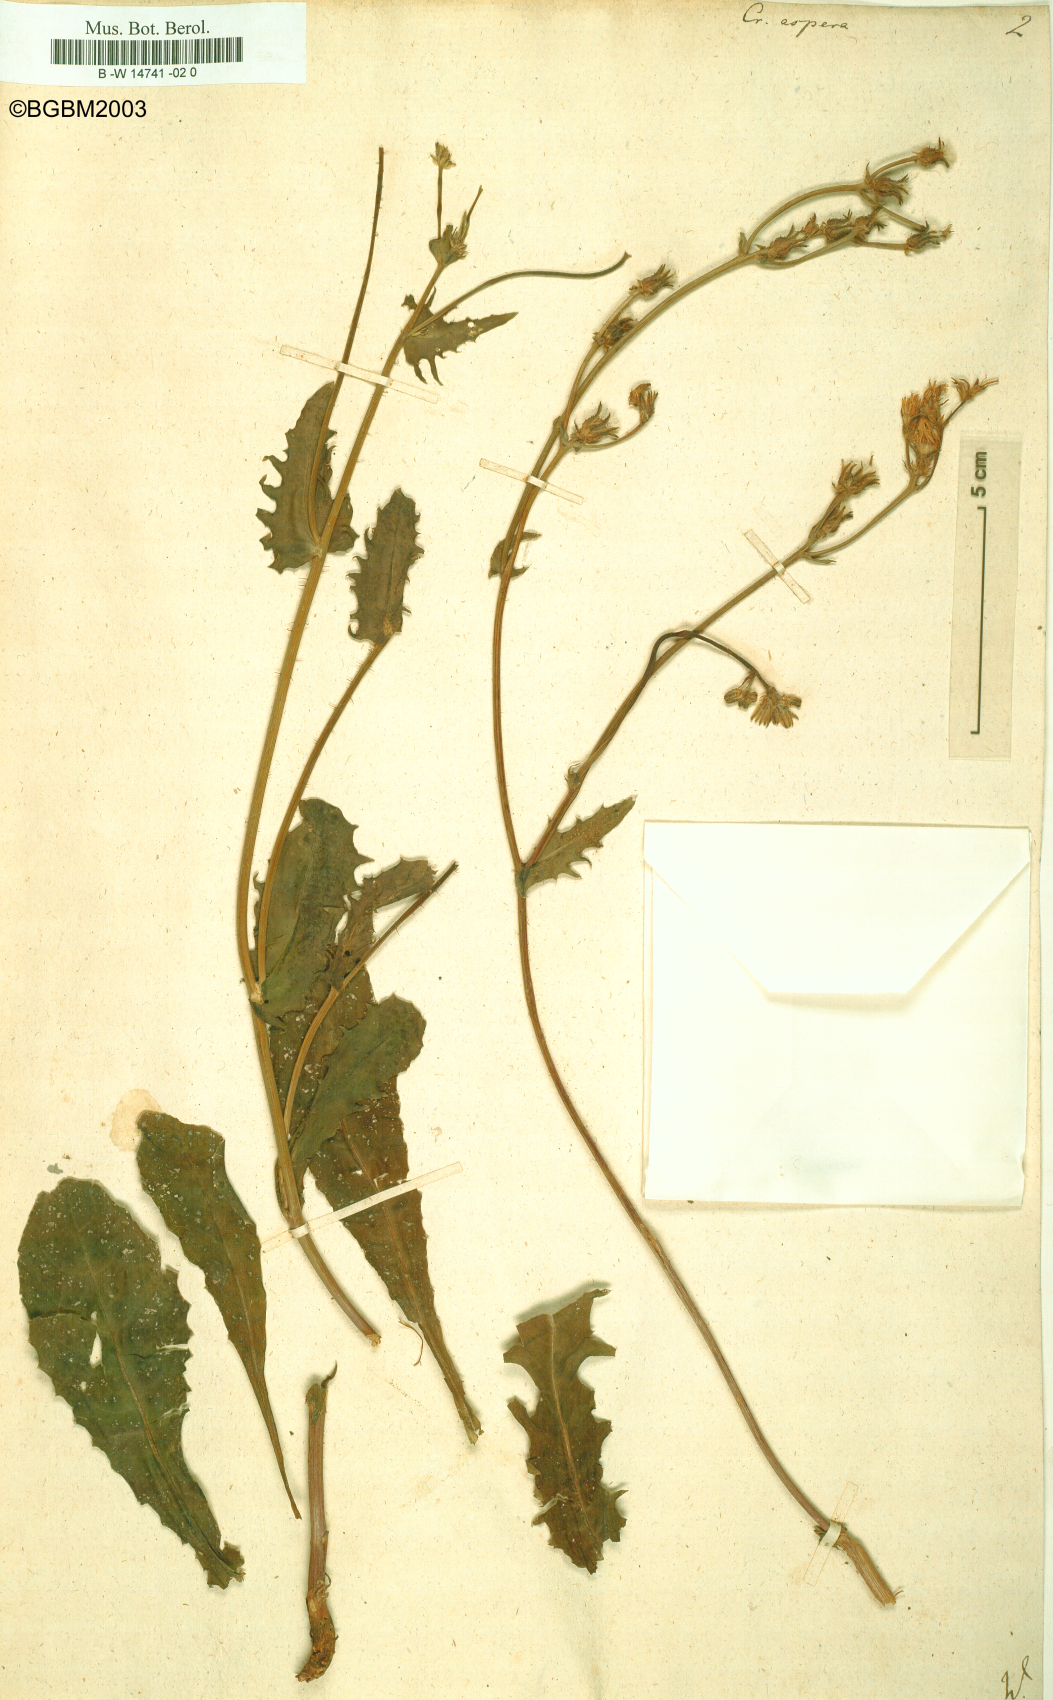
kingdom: Plantae
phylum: Tracheophyta
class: Magnoliopsida
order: Asterales
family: Asteraceae
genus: Crepis
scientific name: Crepis aspera
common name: Hawk's-beard
